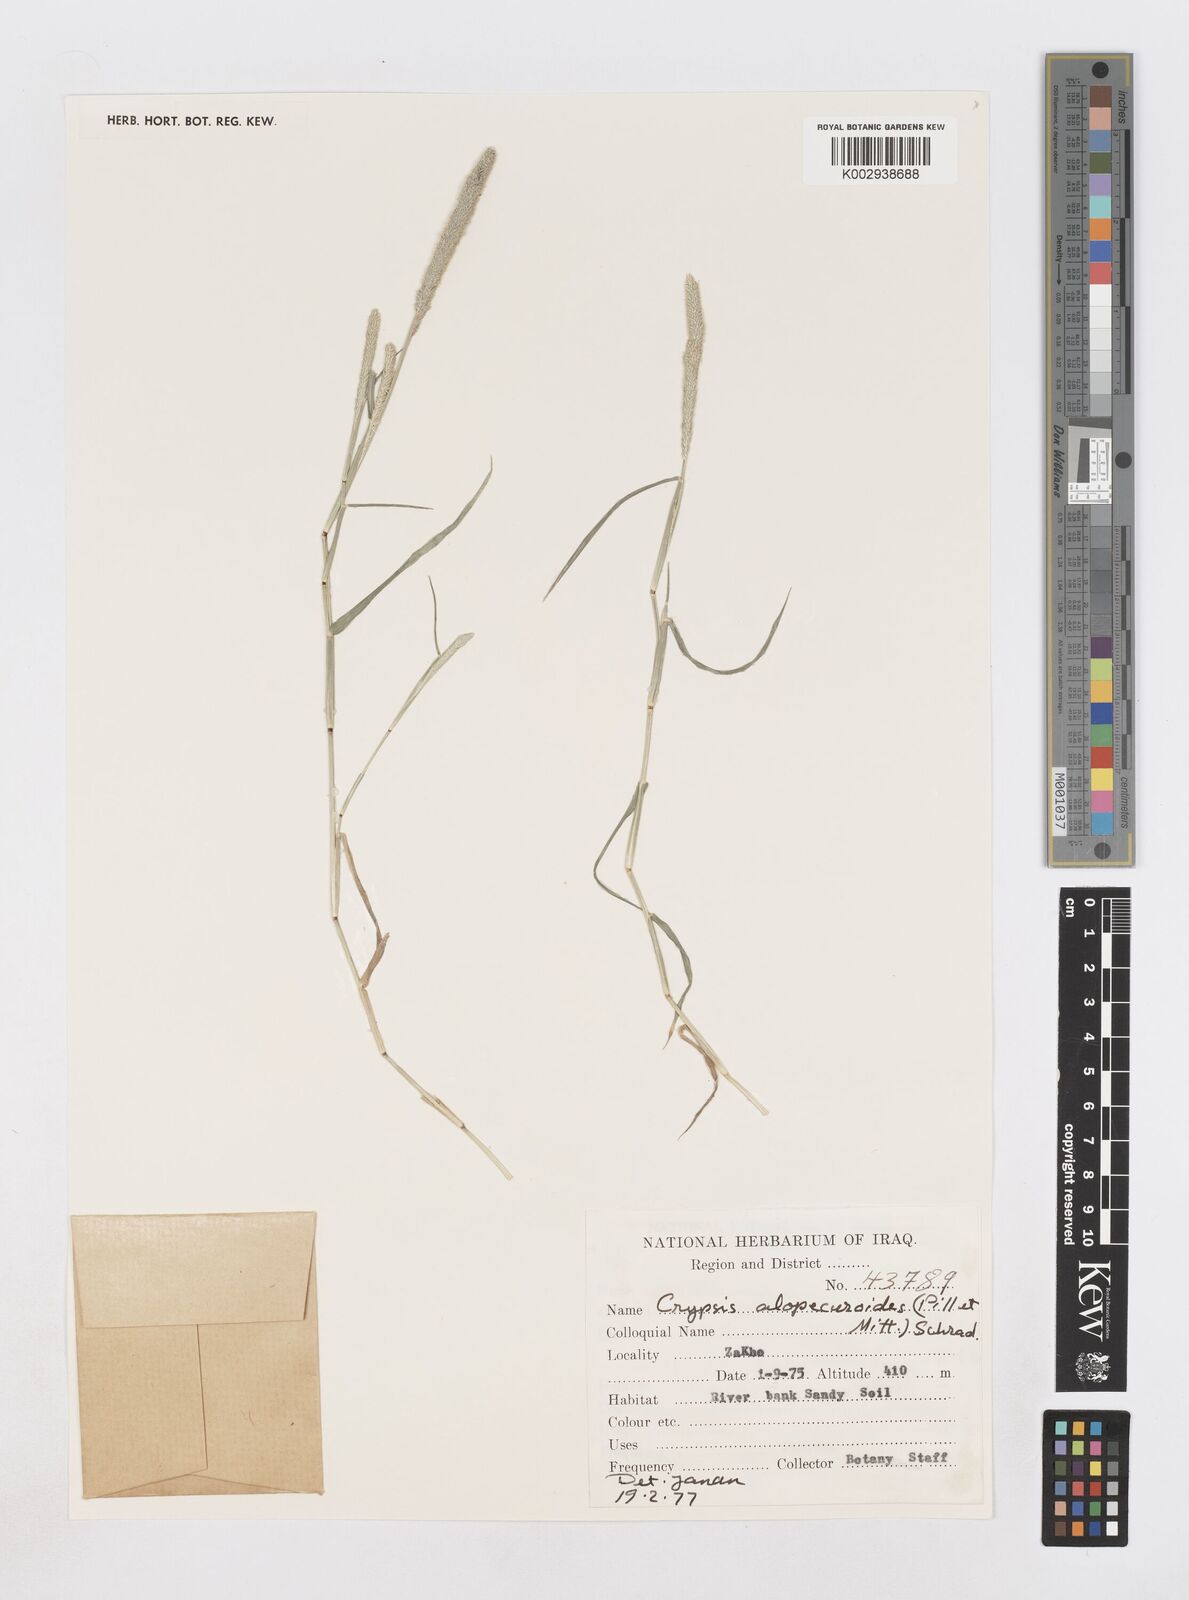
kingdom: Plantae
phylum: Tracheophyta
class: Liliopsida
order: Poales
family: Poaceae
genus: Sporobolus
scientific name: Sporobolus alopecuroides
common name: Foxtail pricklegrass
